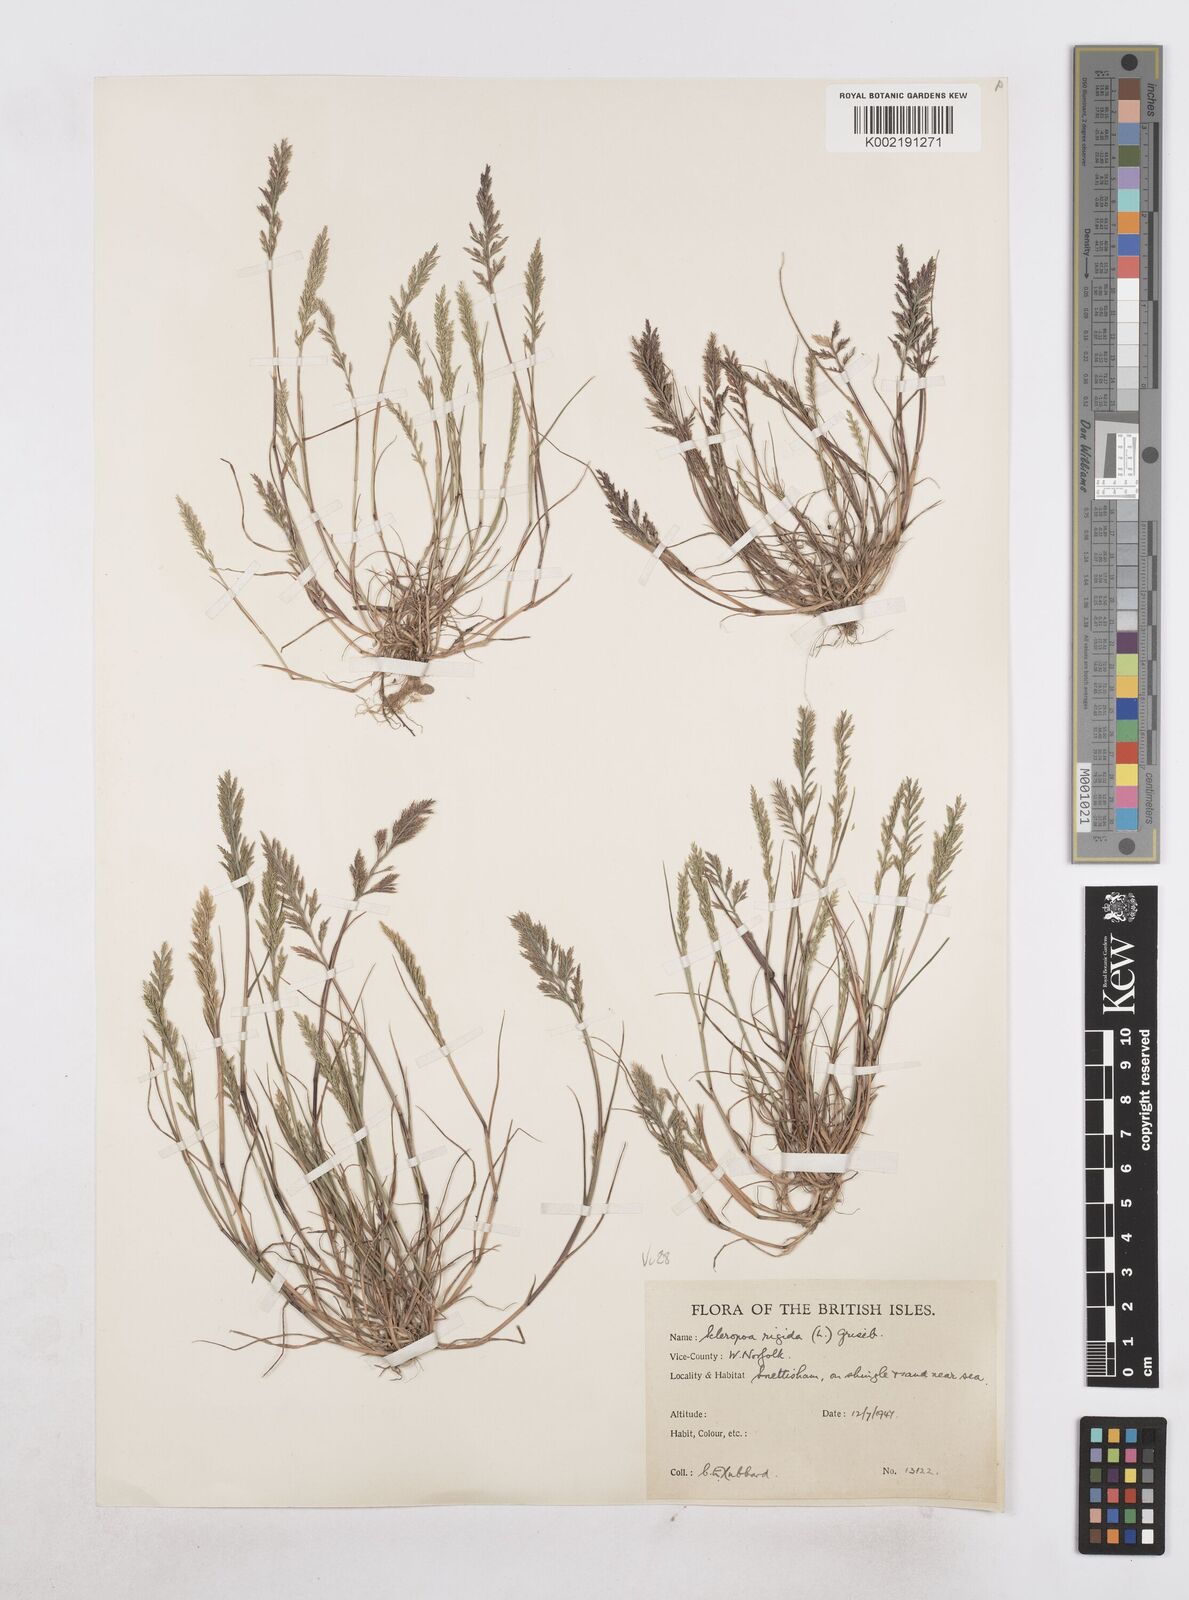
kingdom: Plantae
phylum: Tracheophyta
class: Liliopsida
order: Poales
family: Poaceae
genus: Catapodium
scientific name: Catapodium rigidum
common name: Fern-grass
